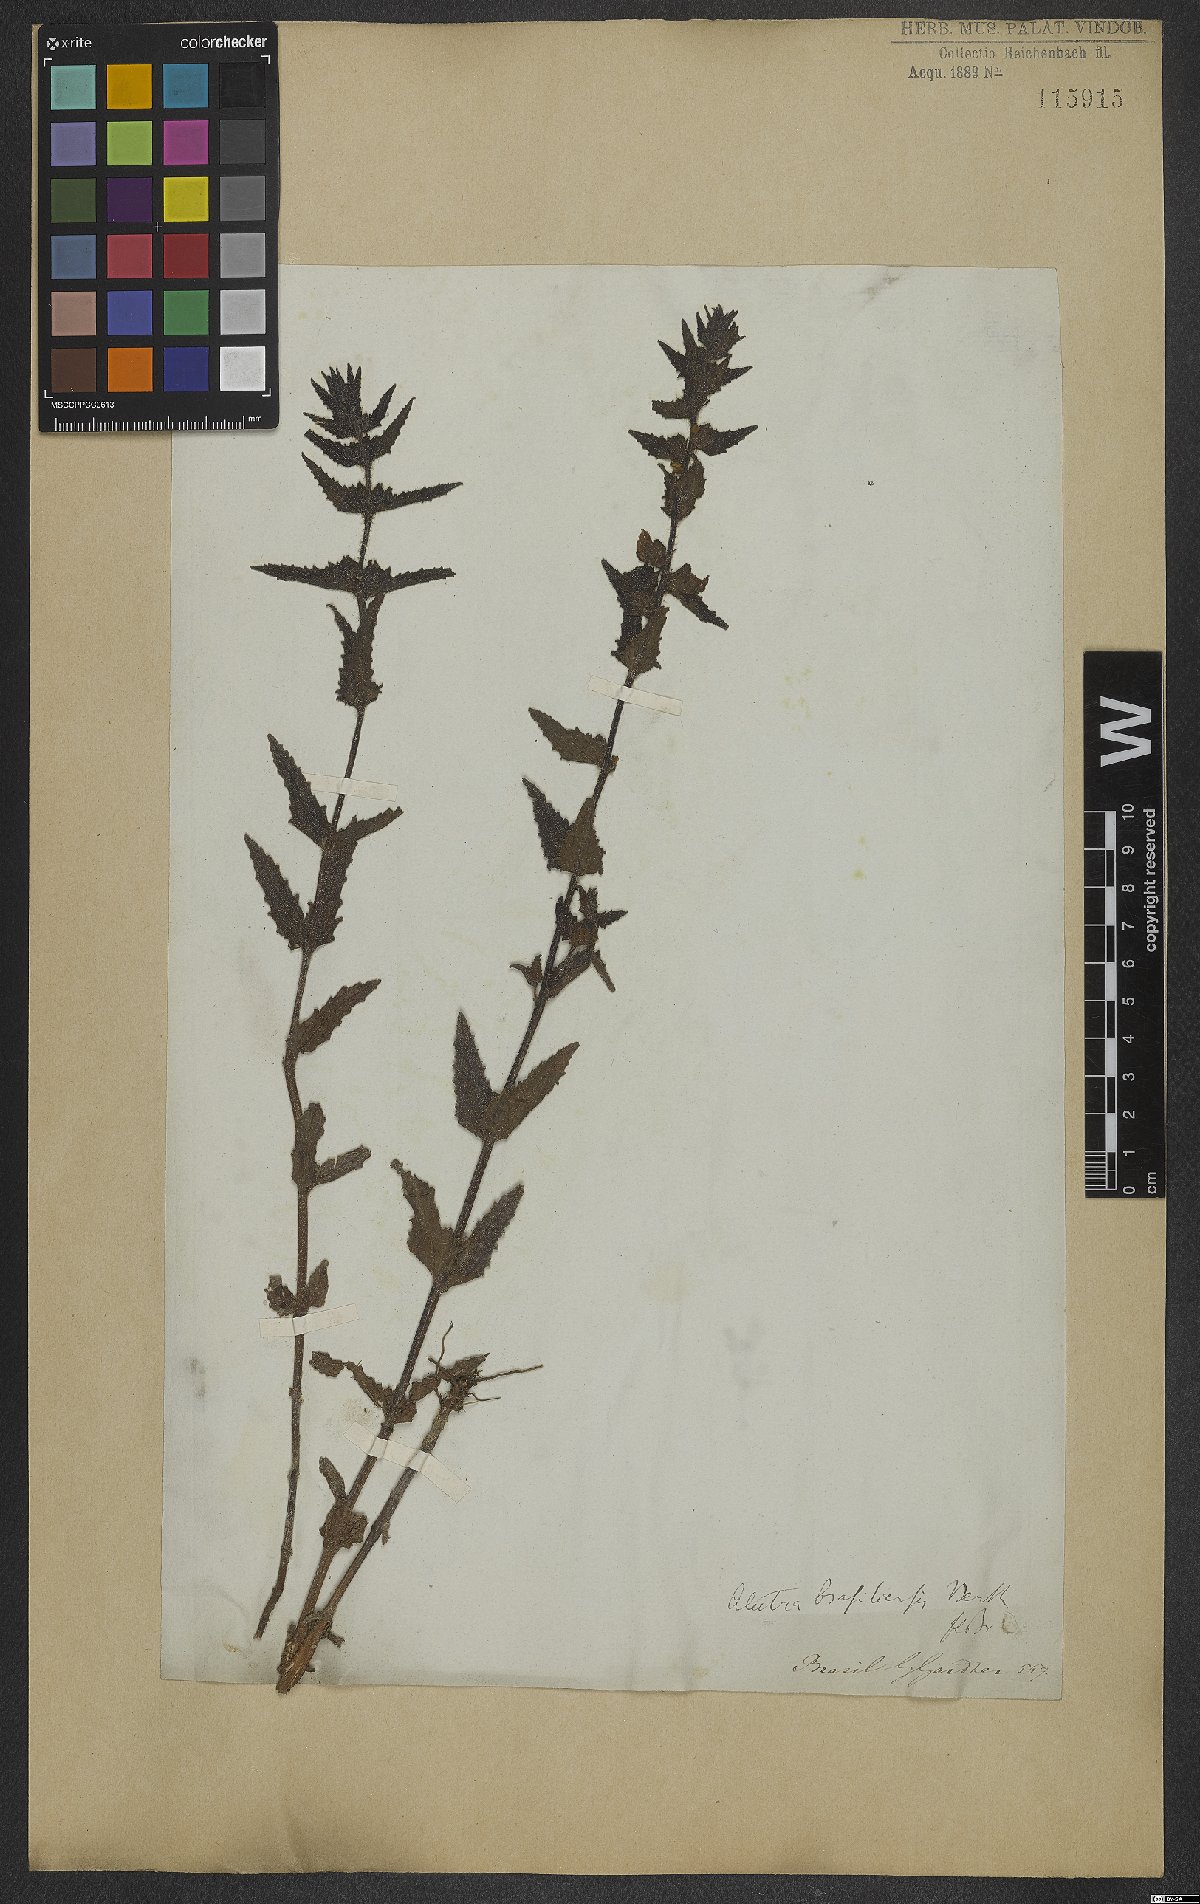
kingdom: Plantae
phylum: Tracheophyta
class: Magnoliopsida
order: Lamiales
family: Orobanchaceae
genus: Melasma
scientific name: Melasma melampyroides
